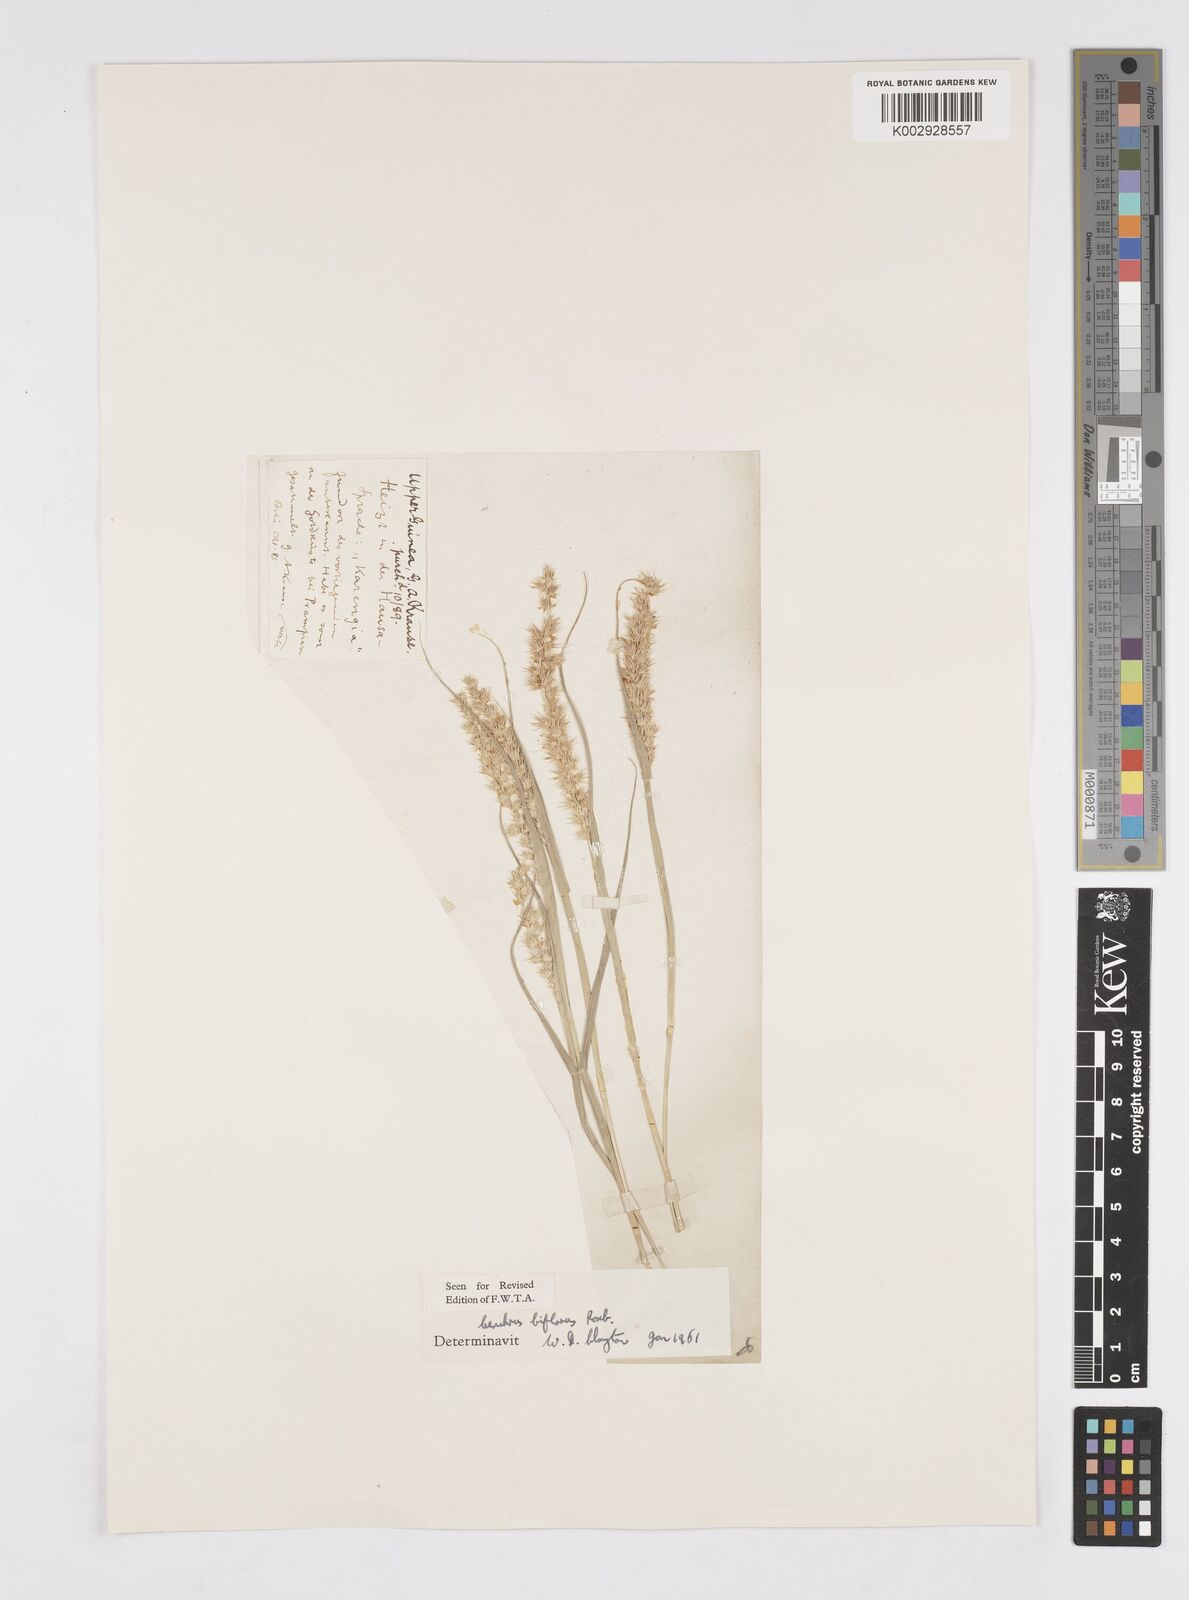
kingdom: Plantae
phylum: Tracheophyta
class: Liliopsida
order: Poales
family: Poaceae
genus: Cenchrus
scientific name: Cenchrus biflorus
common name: Indian sandbur
